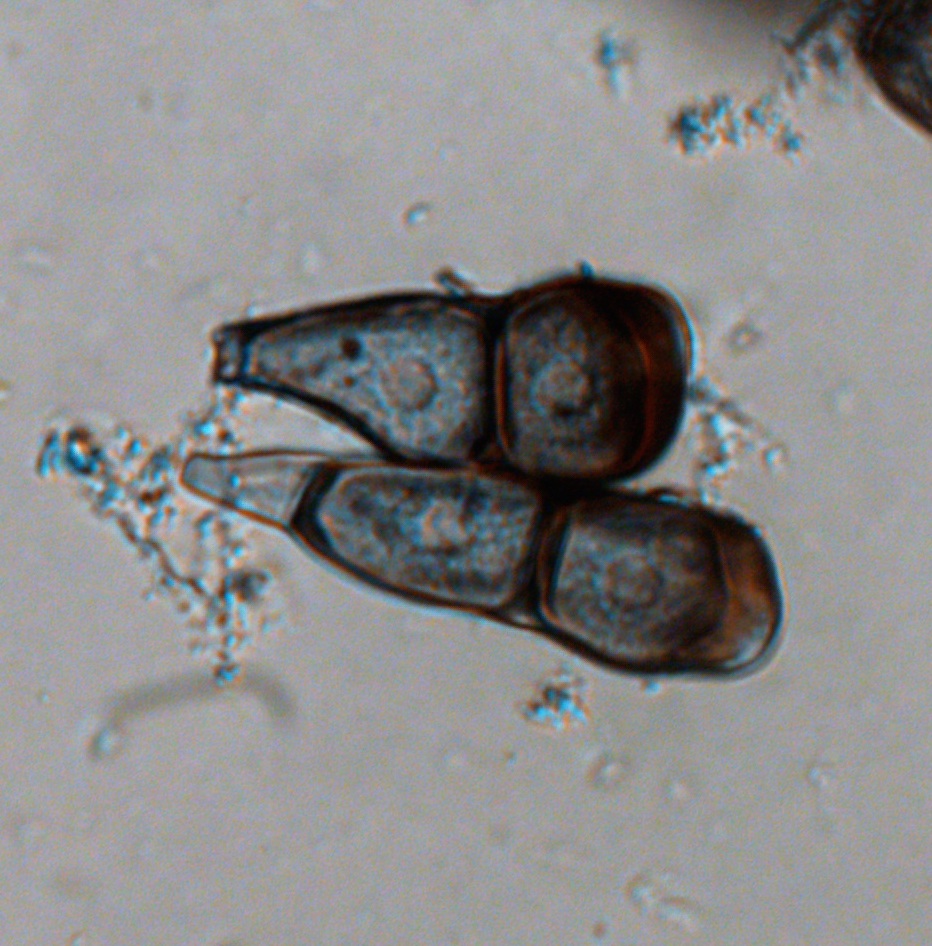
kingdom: Fungi
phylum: Basidiomycota
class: Pucciniomycetes
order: Pucciniales
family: Pucciniaceae
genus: Puccinia
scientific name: Puccinia polygoni-amphibii
